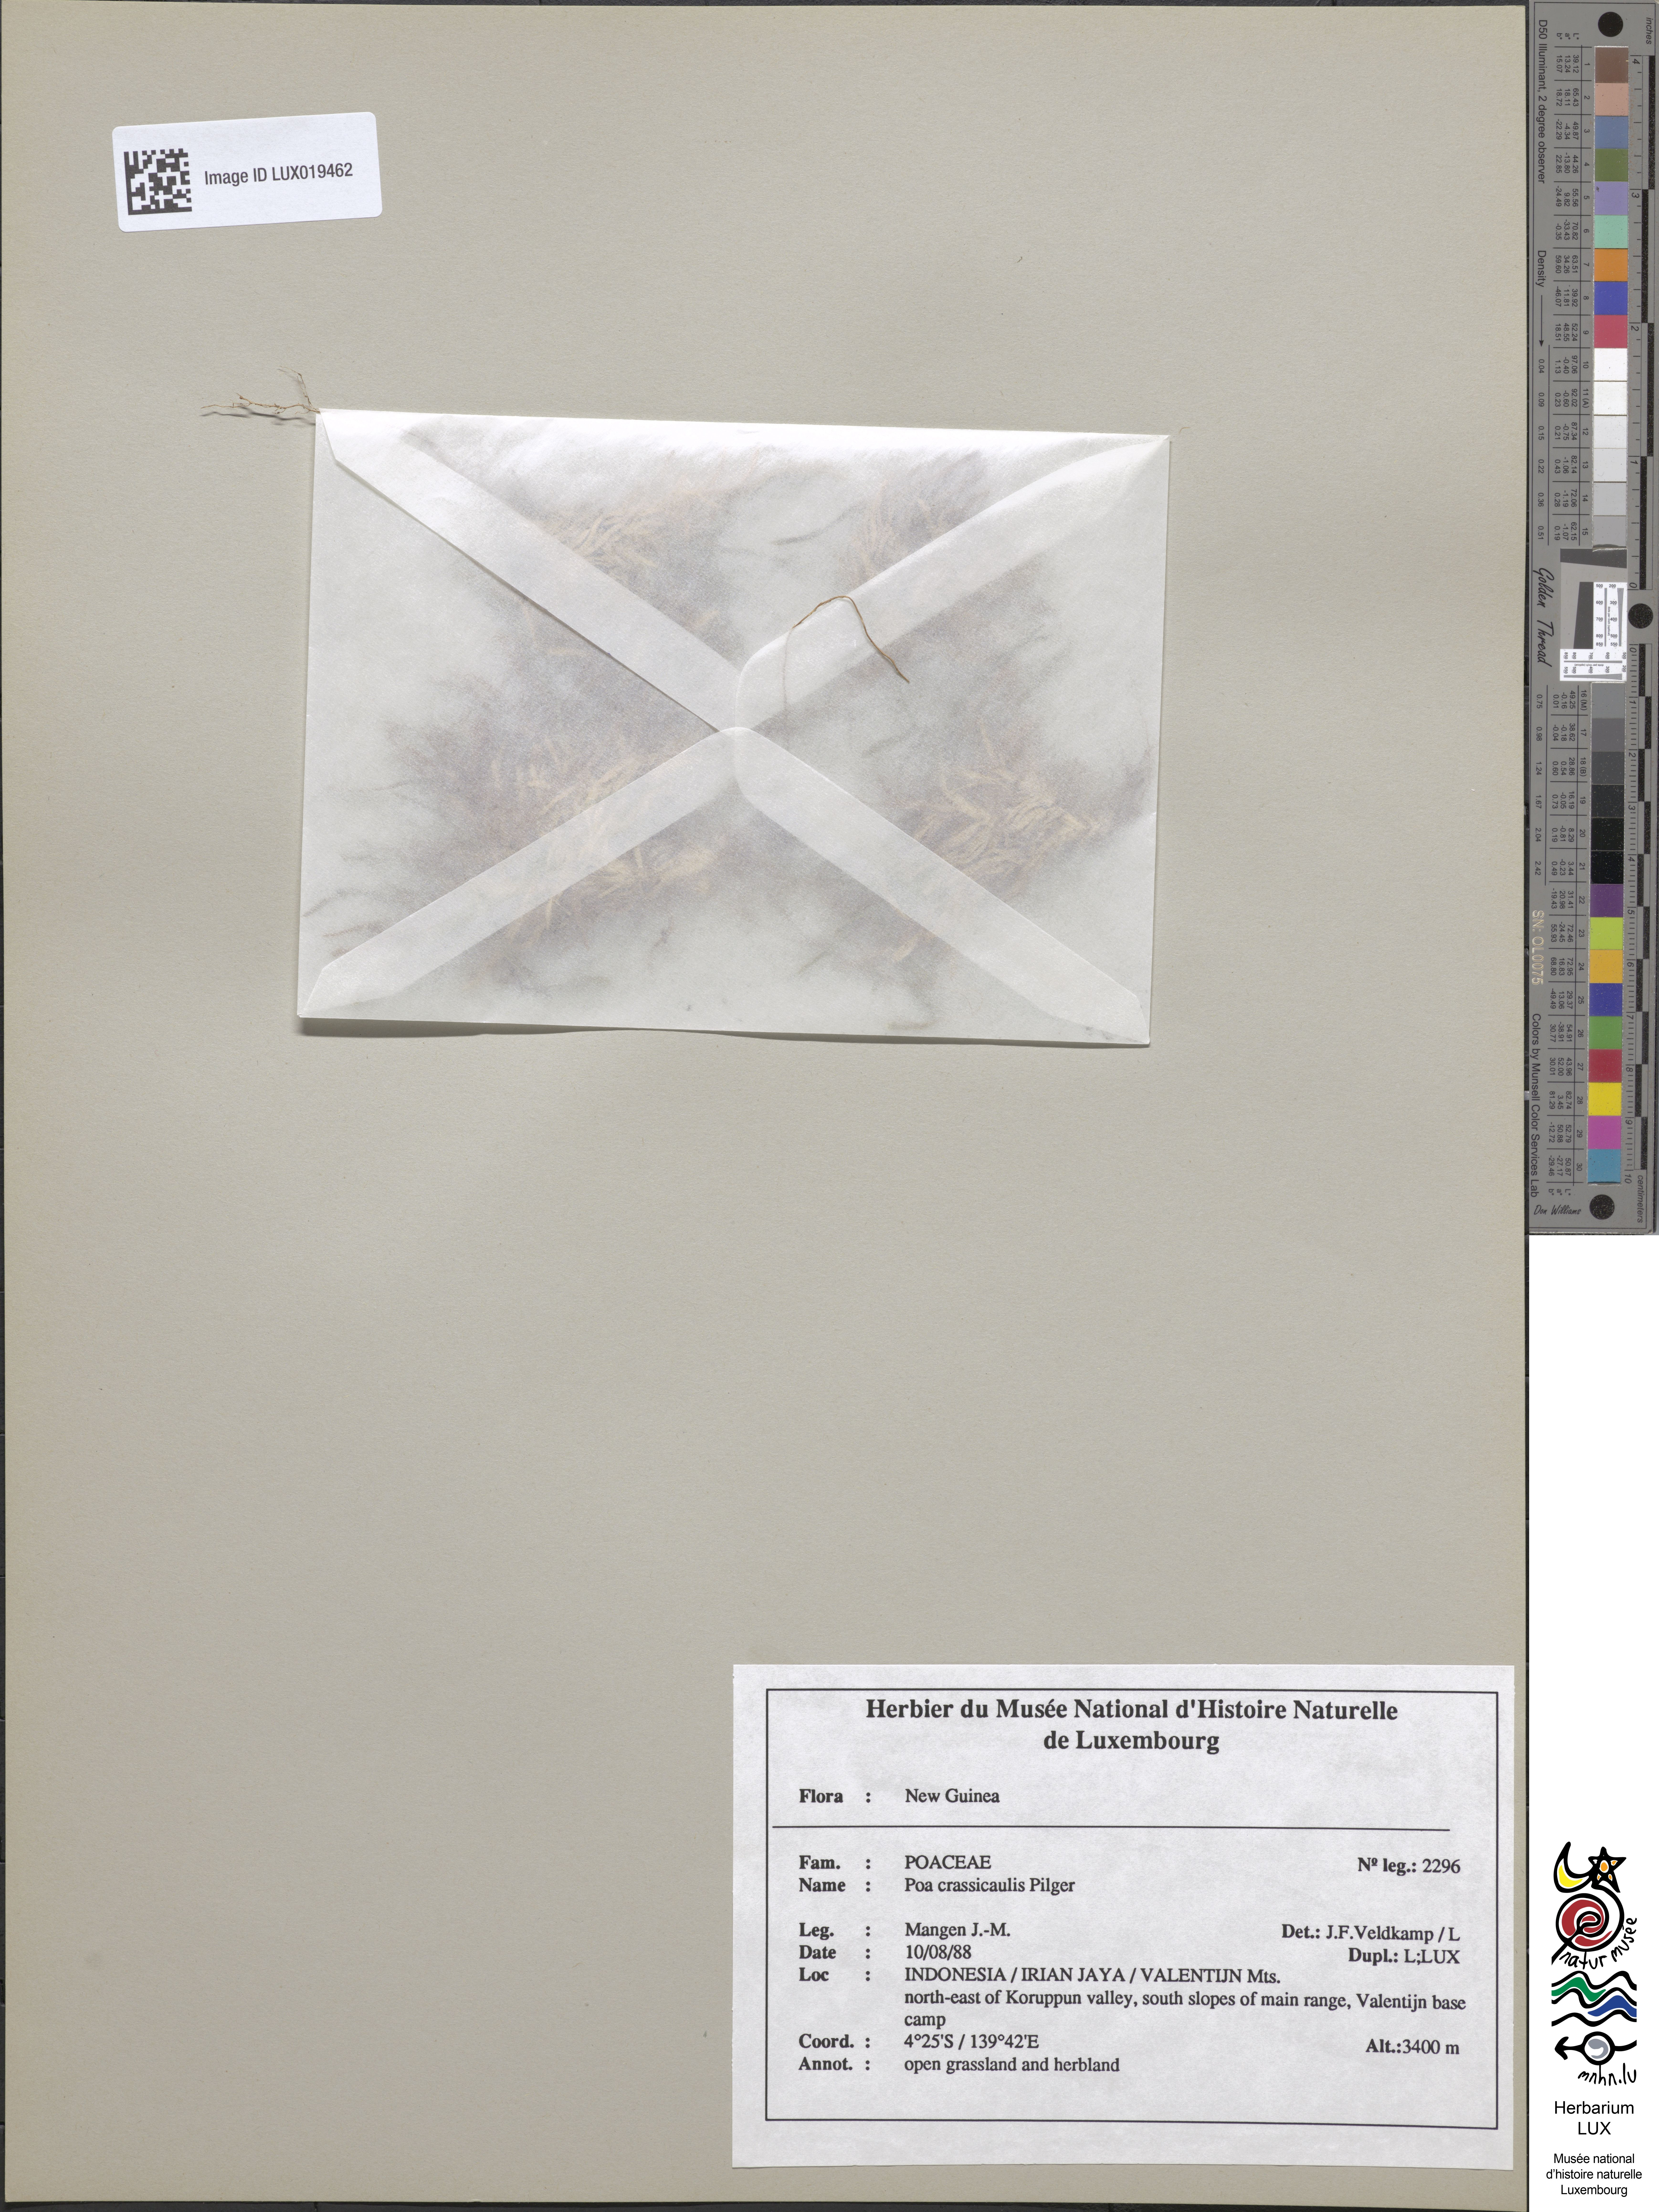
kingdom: Plantae
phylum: Tracheophyta
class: Liliopsida
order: Poales
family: Poaceae
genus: Poa
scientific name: Poa crassicaulis
